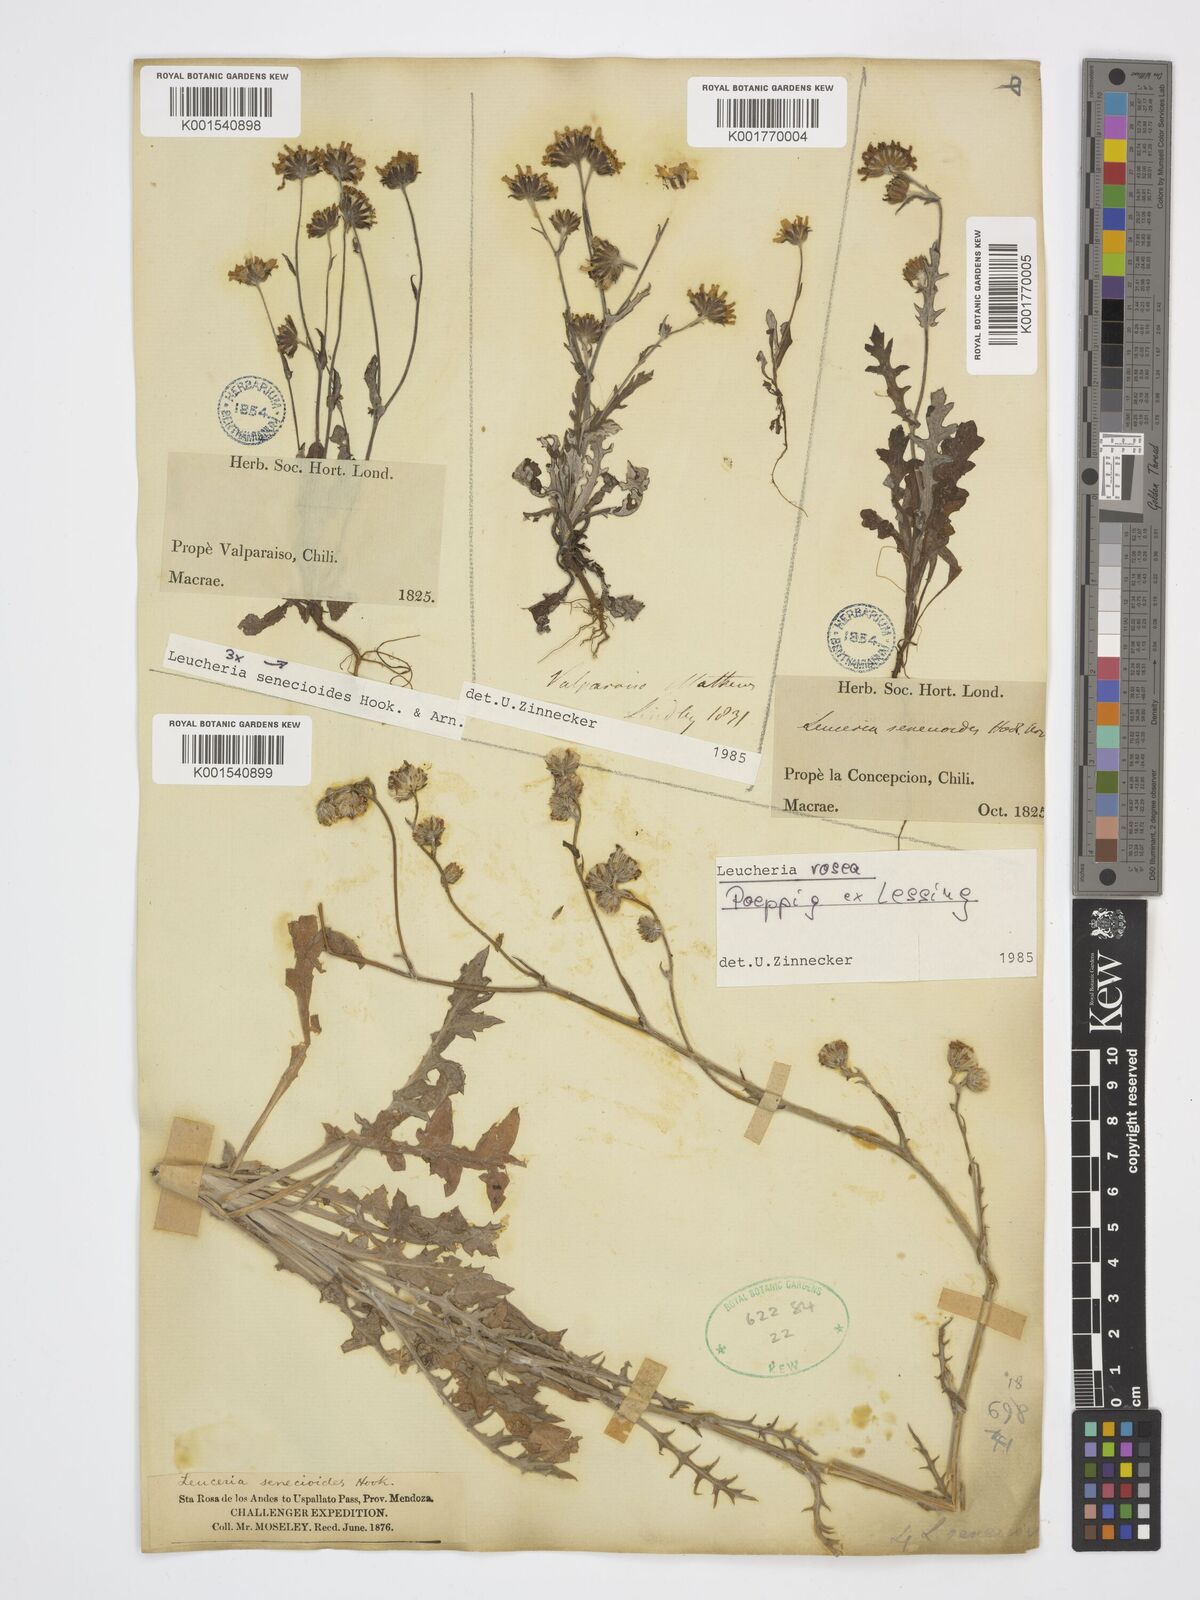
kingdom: Plantae
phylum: Tracheophyta
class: Magnoliopsida
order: Asterales
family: Asteraceae
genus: Leucheria
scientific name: Leucheria rosea
